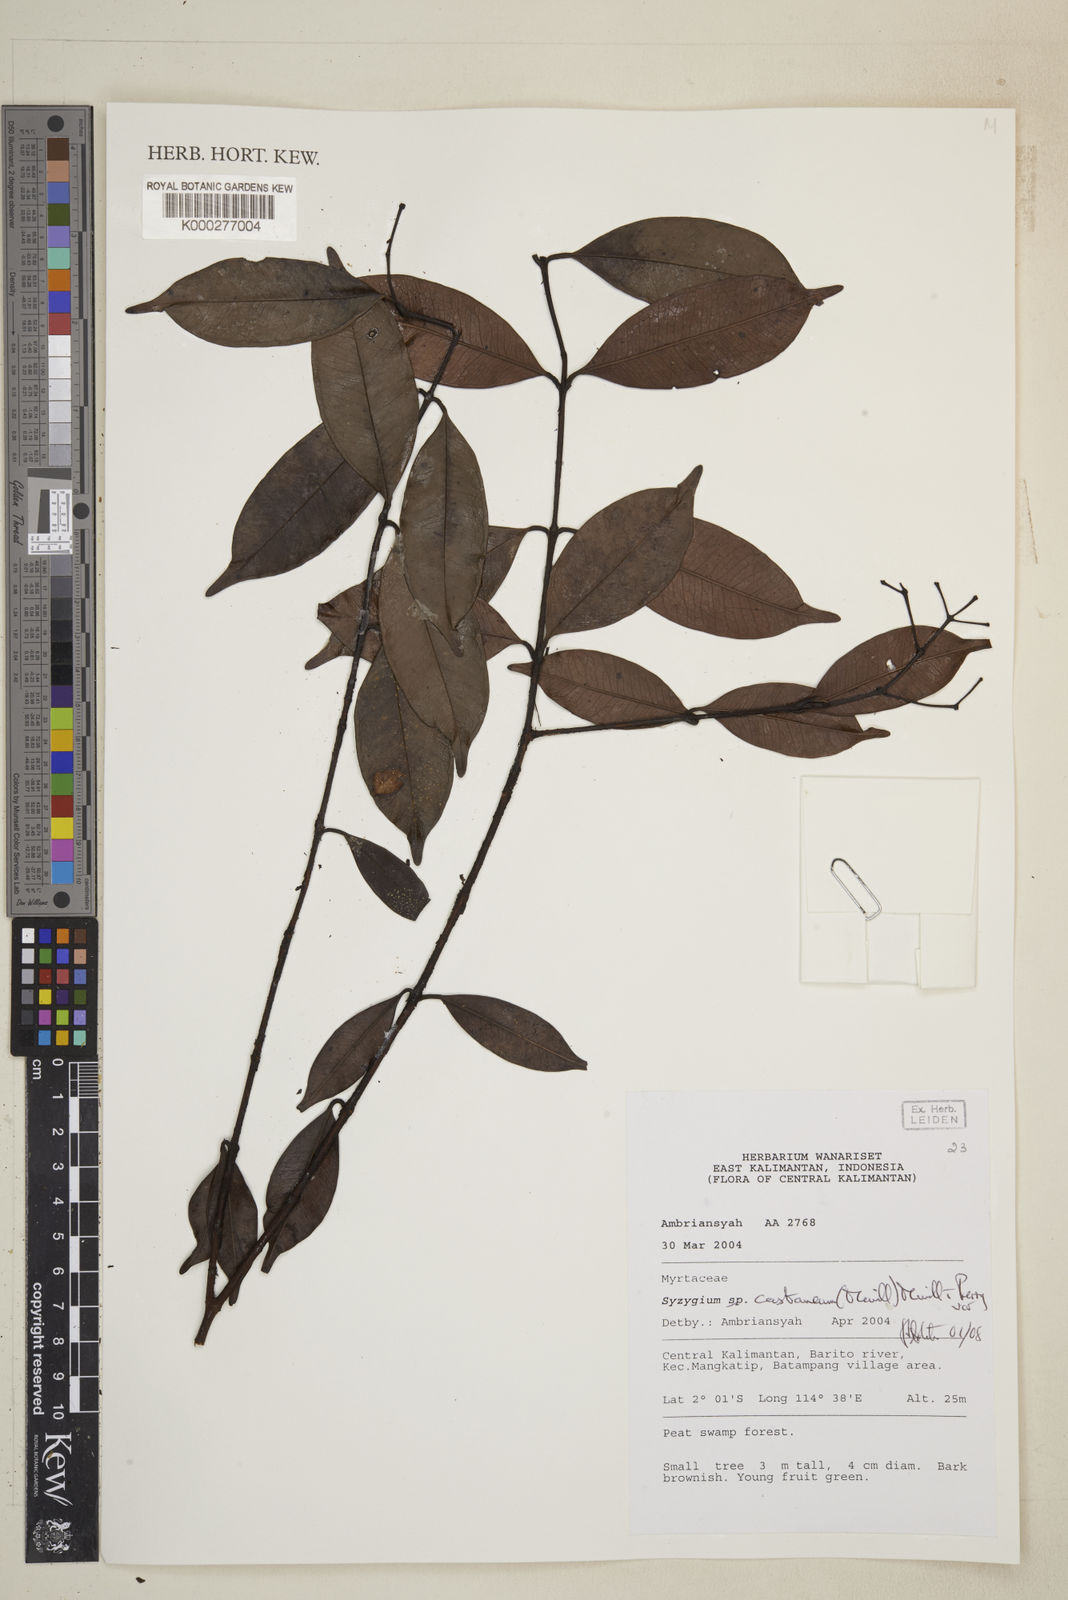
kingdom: Plantae
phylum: Tracheophyta
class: Magnoliopsida
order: Myrtales
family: Myrtaceae
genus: Syzygium
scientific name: Syzygium castaneum
